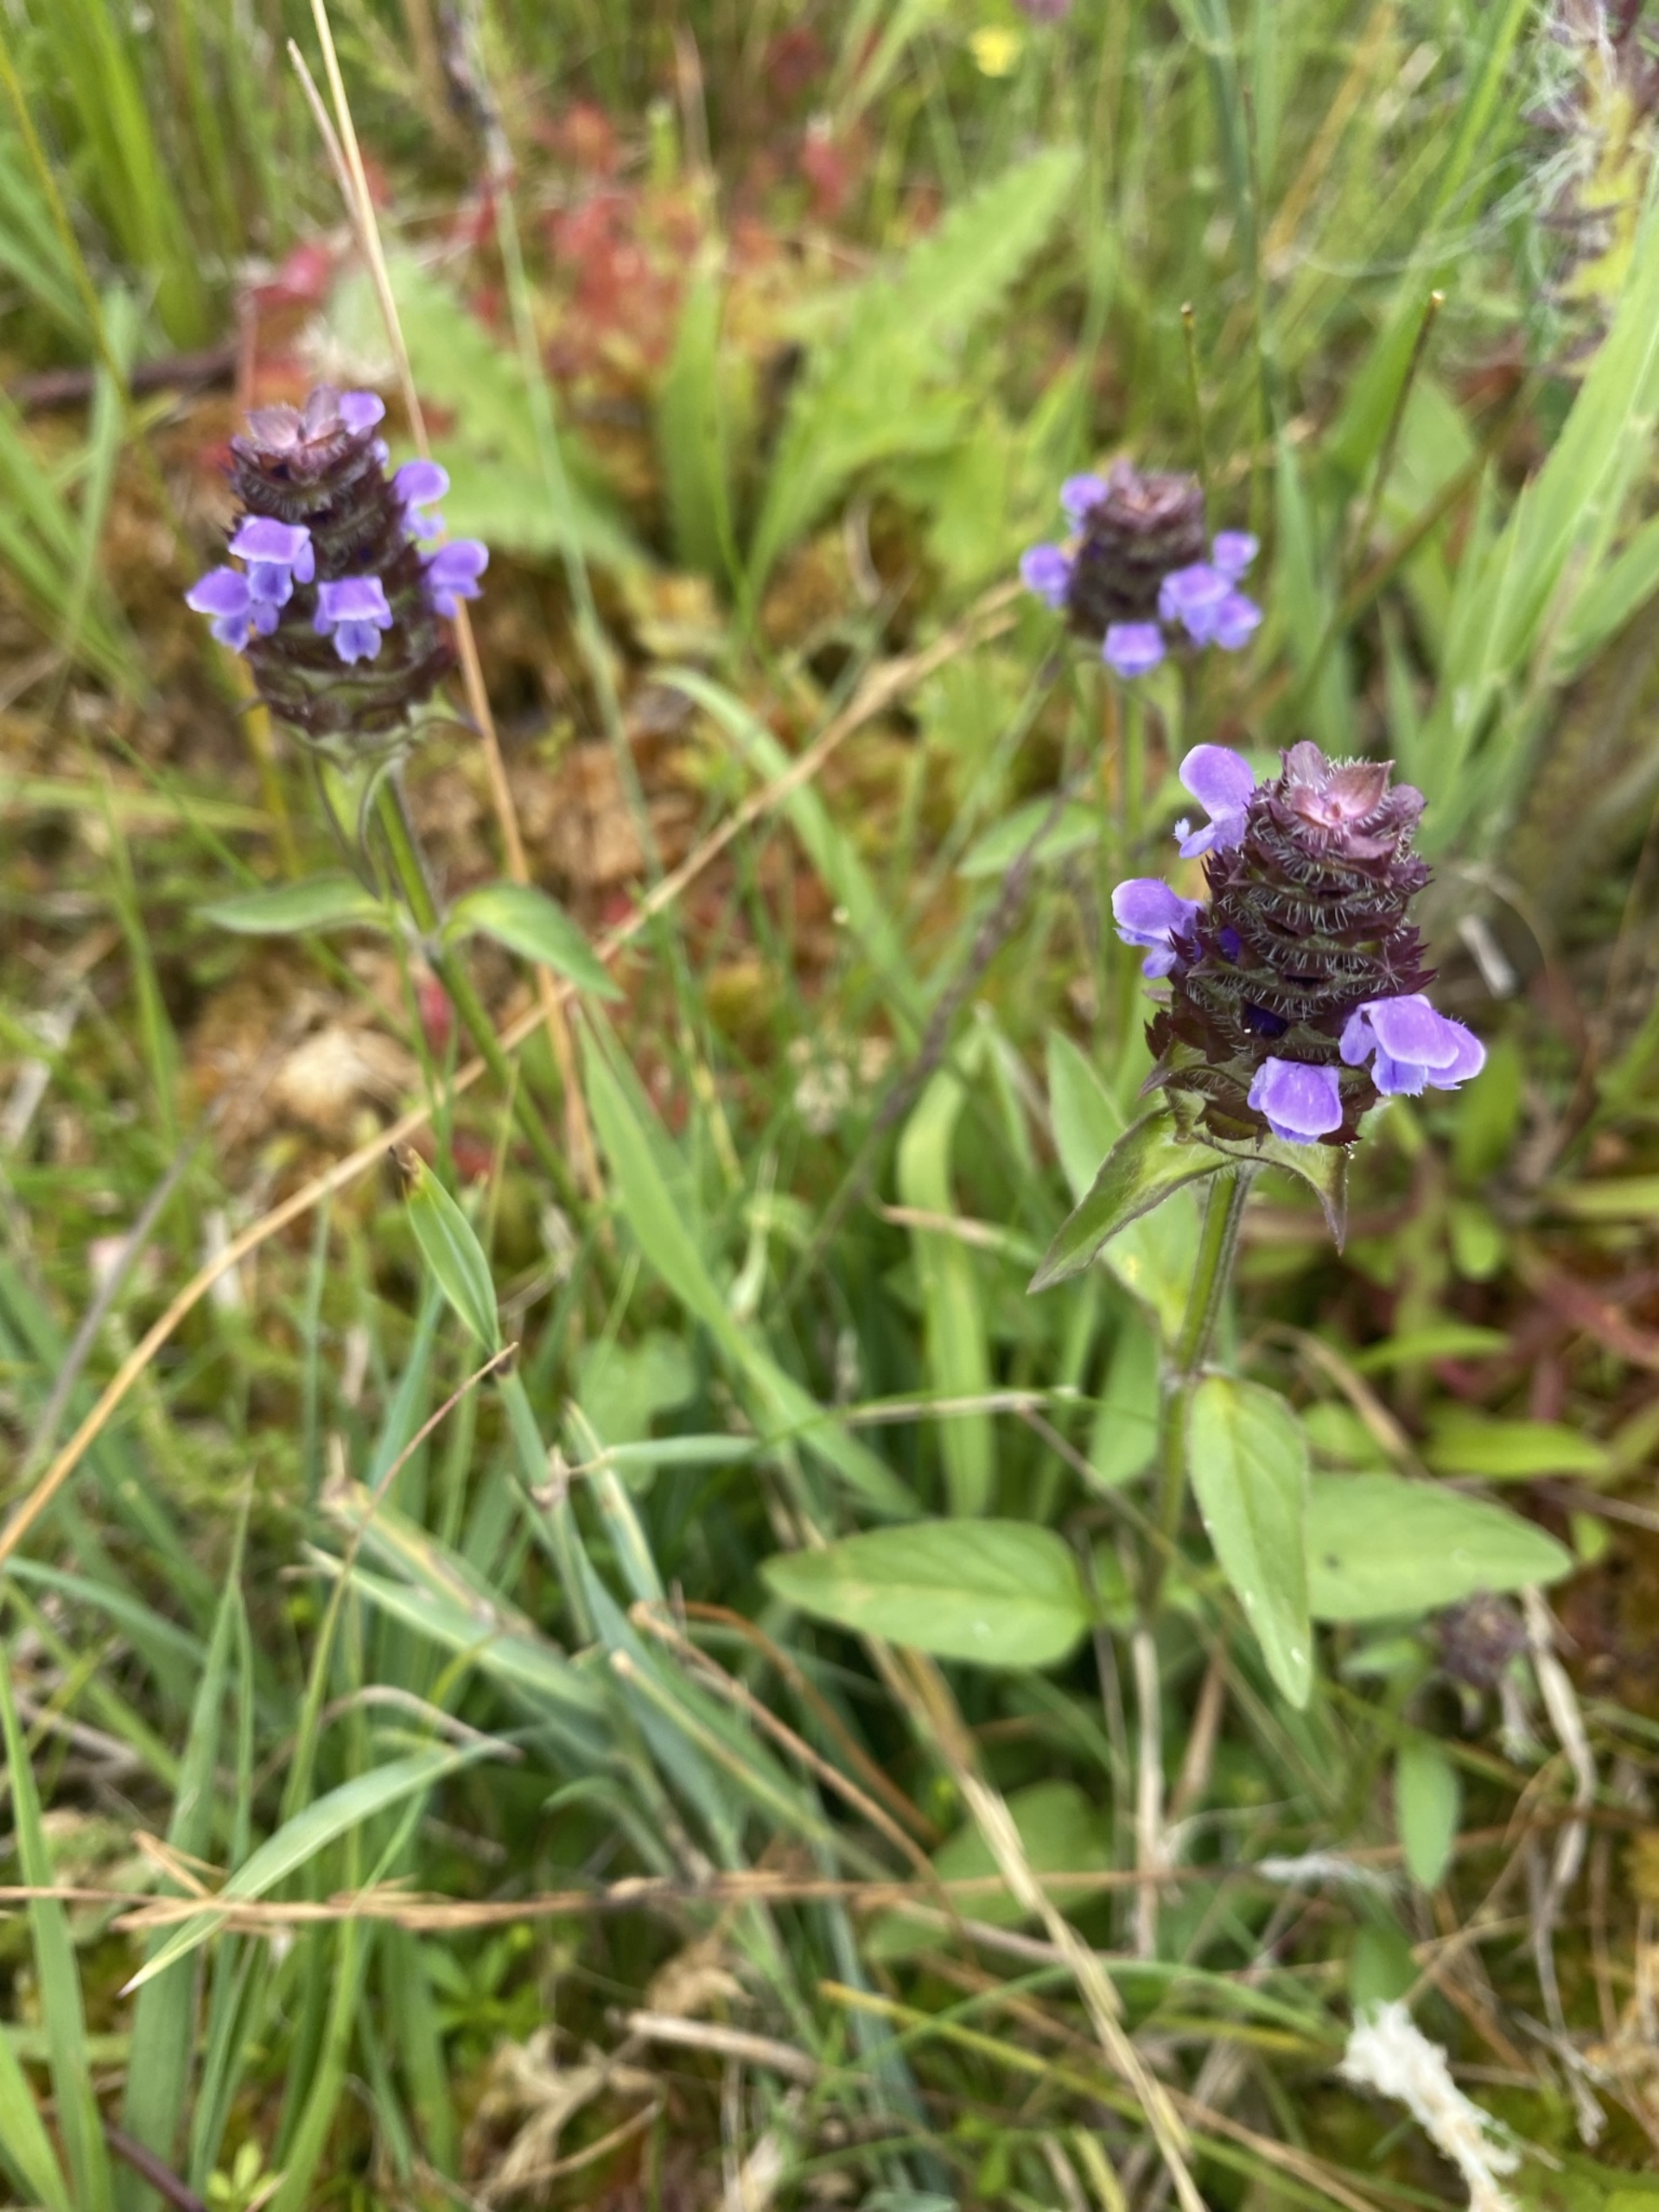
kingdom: Plantae
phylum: Tracheophyta
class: Magnoliopsida
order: Lamiales
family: Lamiaceae
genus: Prunella
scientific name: Prunella vulgaris
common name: Almindelig brunelle
